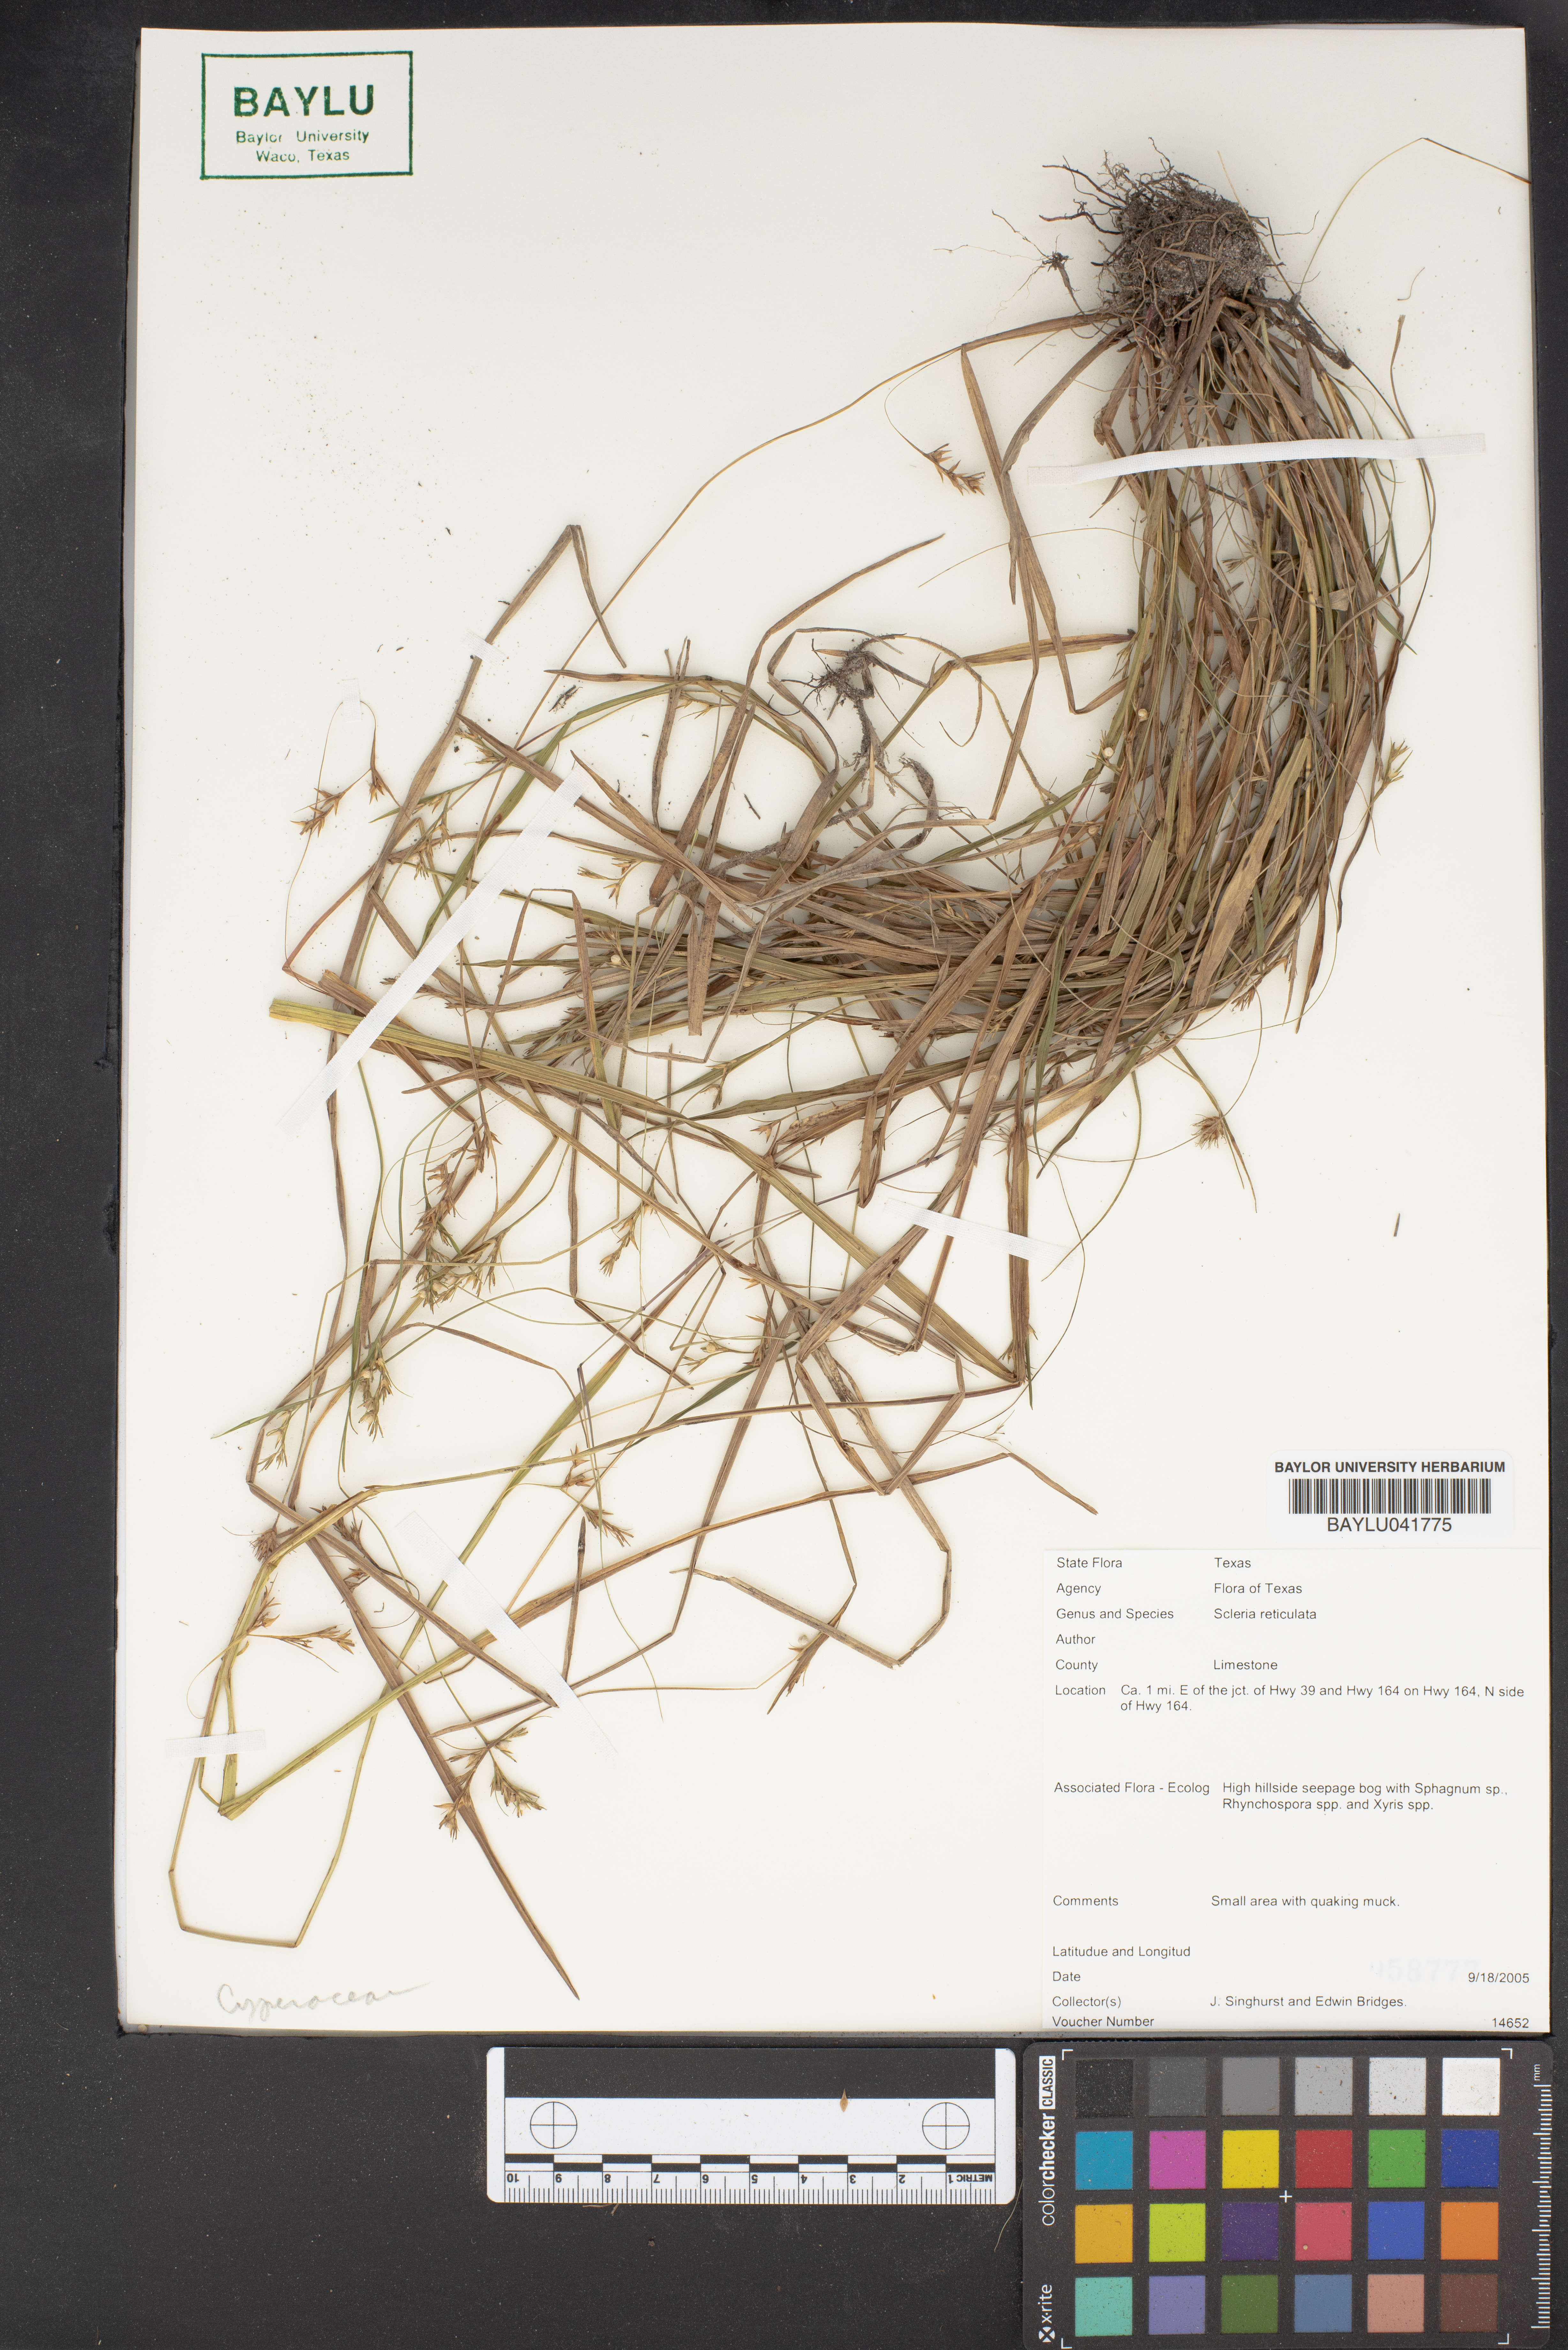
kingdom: Plantae
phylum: Tracheophyta
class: Liliopsida
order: Poales
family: Cyperaceae
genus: Diplacrum
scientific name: Diplacrum reticulatum
